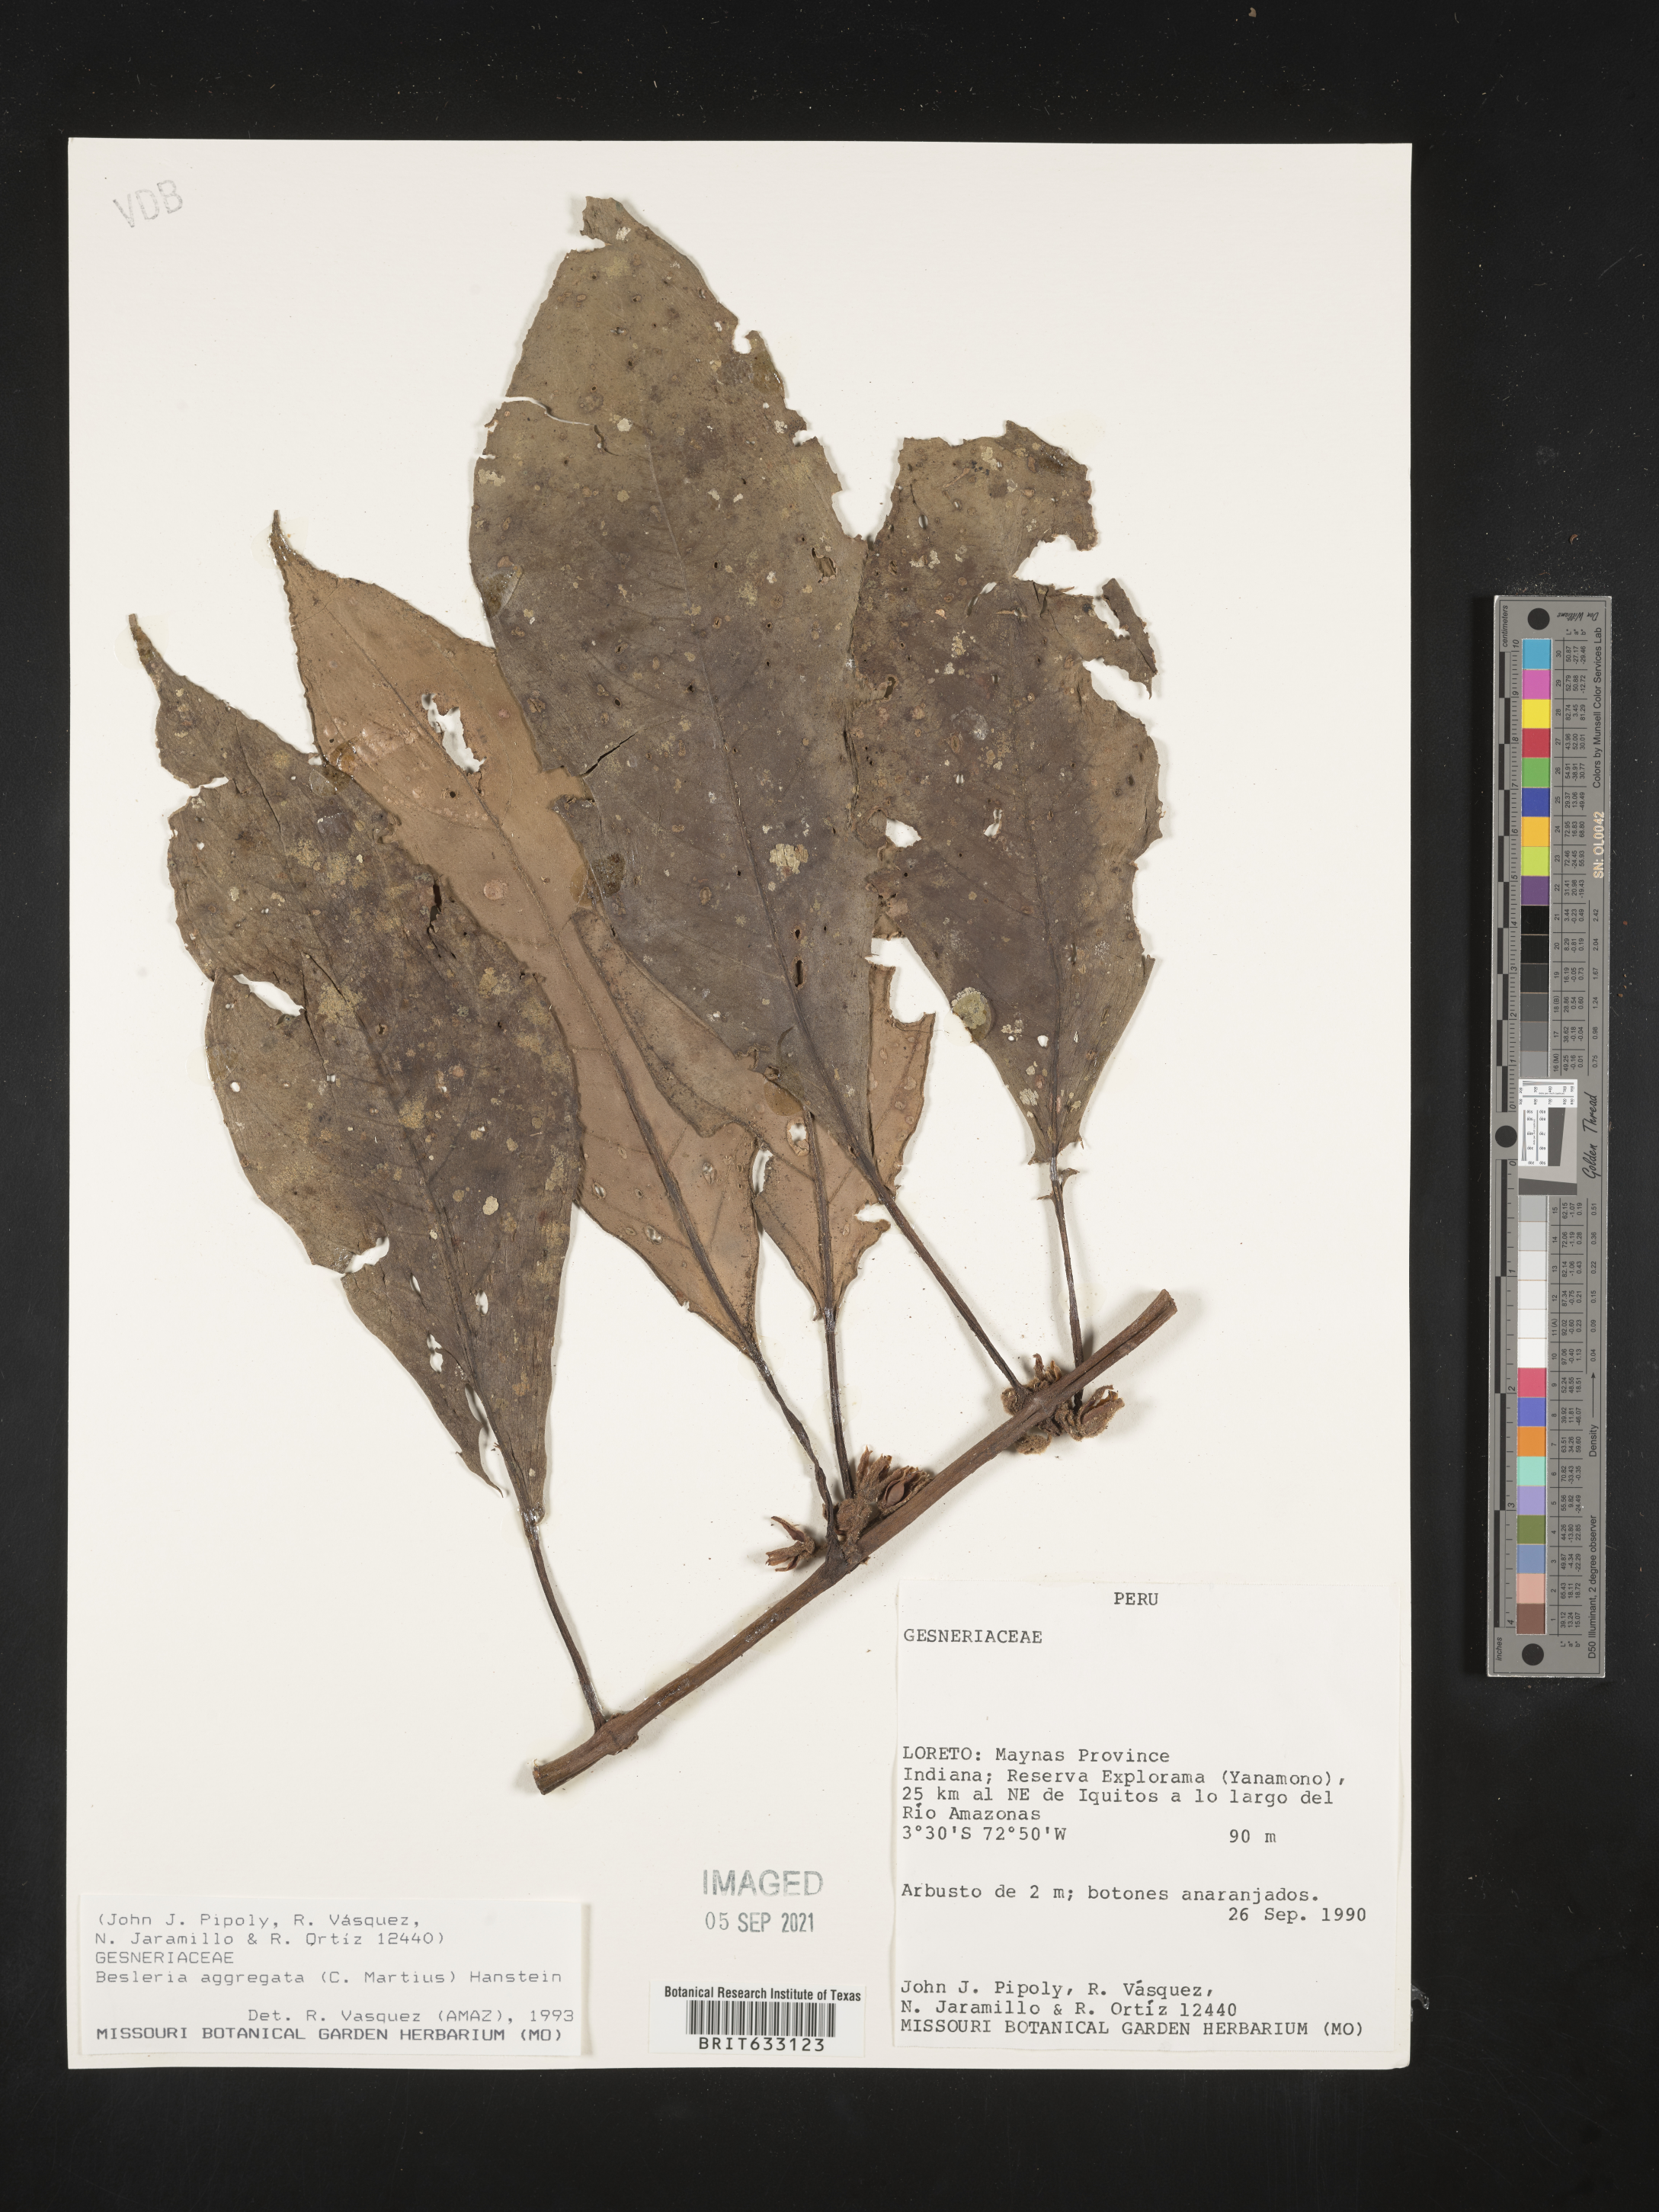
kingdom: Plantae
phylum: Tracheophyta
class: Magnoliopsida
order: Lamiales
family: Gesneriaceae
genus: Besleria
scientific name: Besleria
